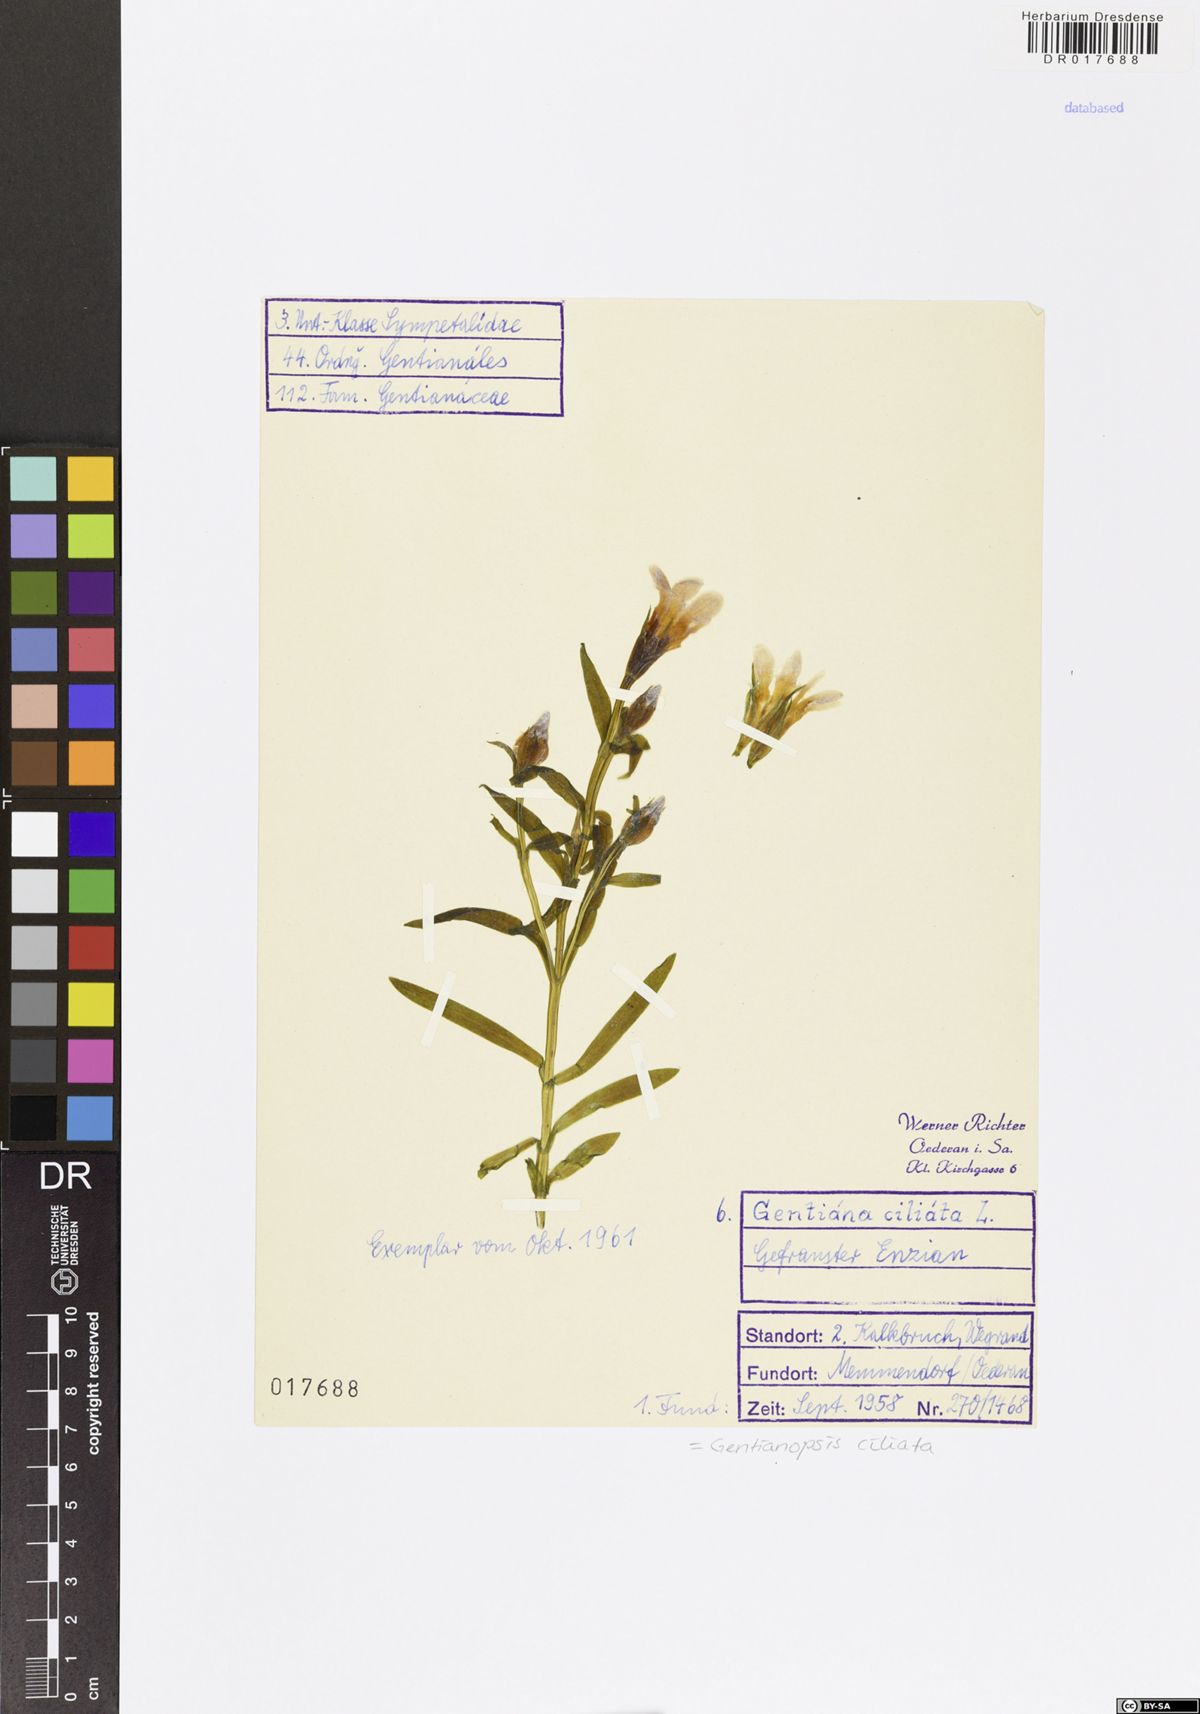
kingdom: Plantae
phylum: Tracheophyta
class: Magnoliopsida
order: Gentianales
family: Gentianaceae
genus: Gentianopsis
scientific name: Gentianopsis ciliata
